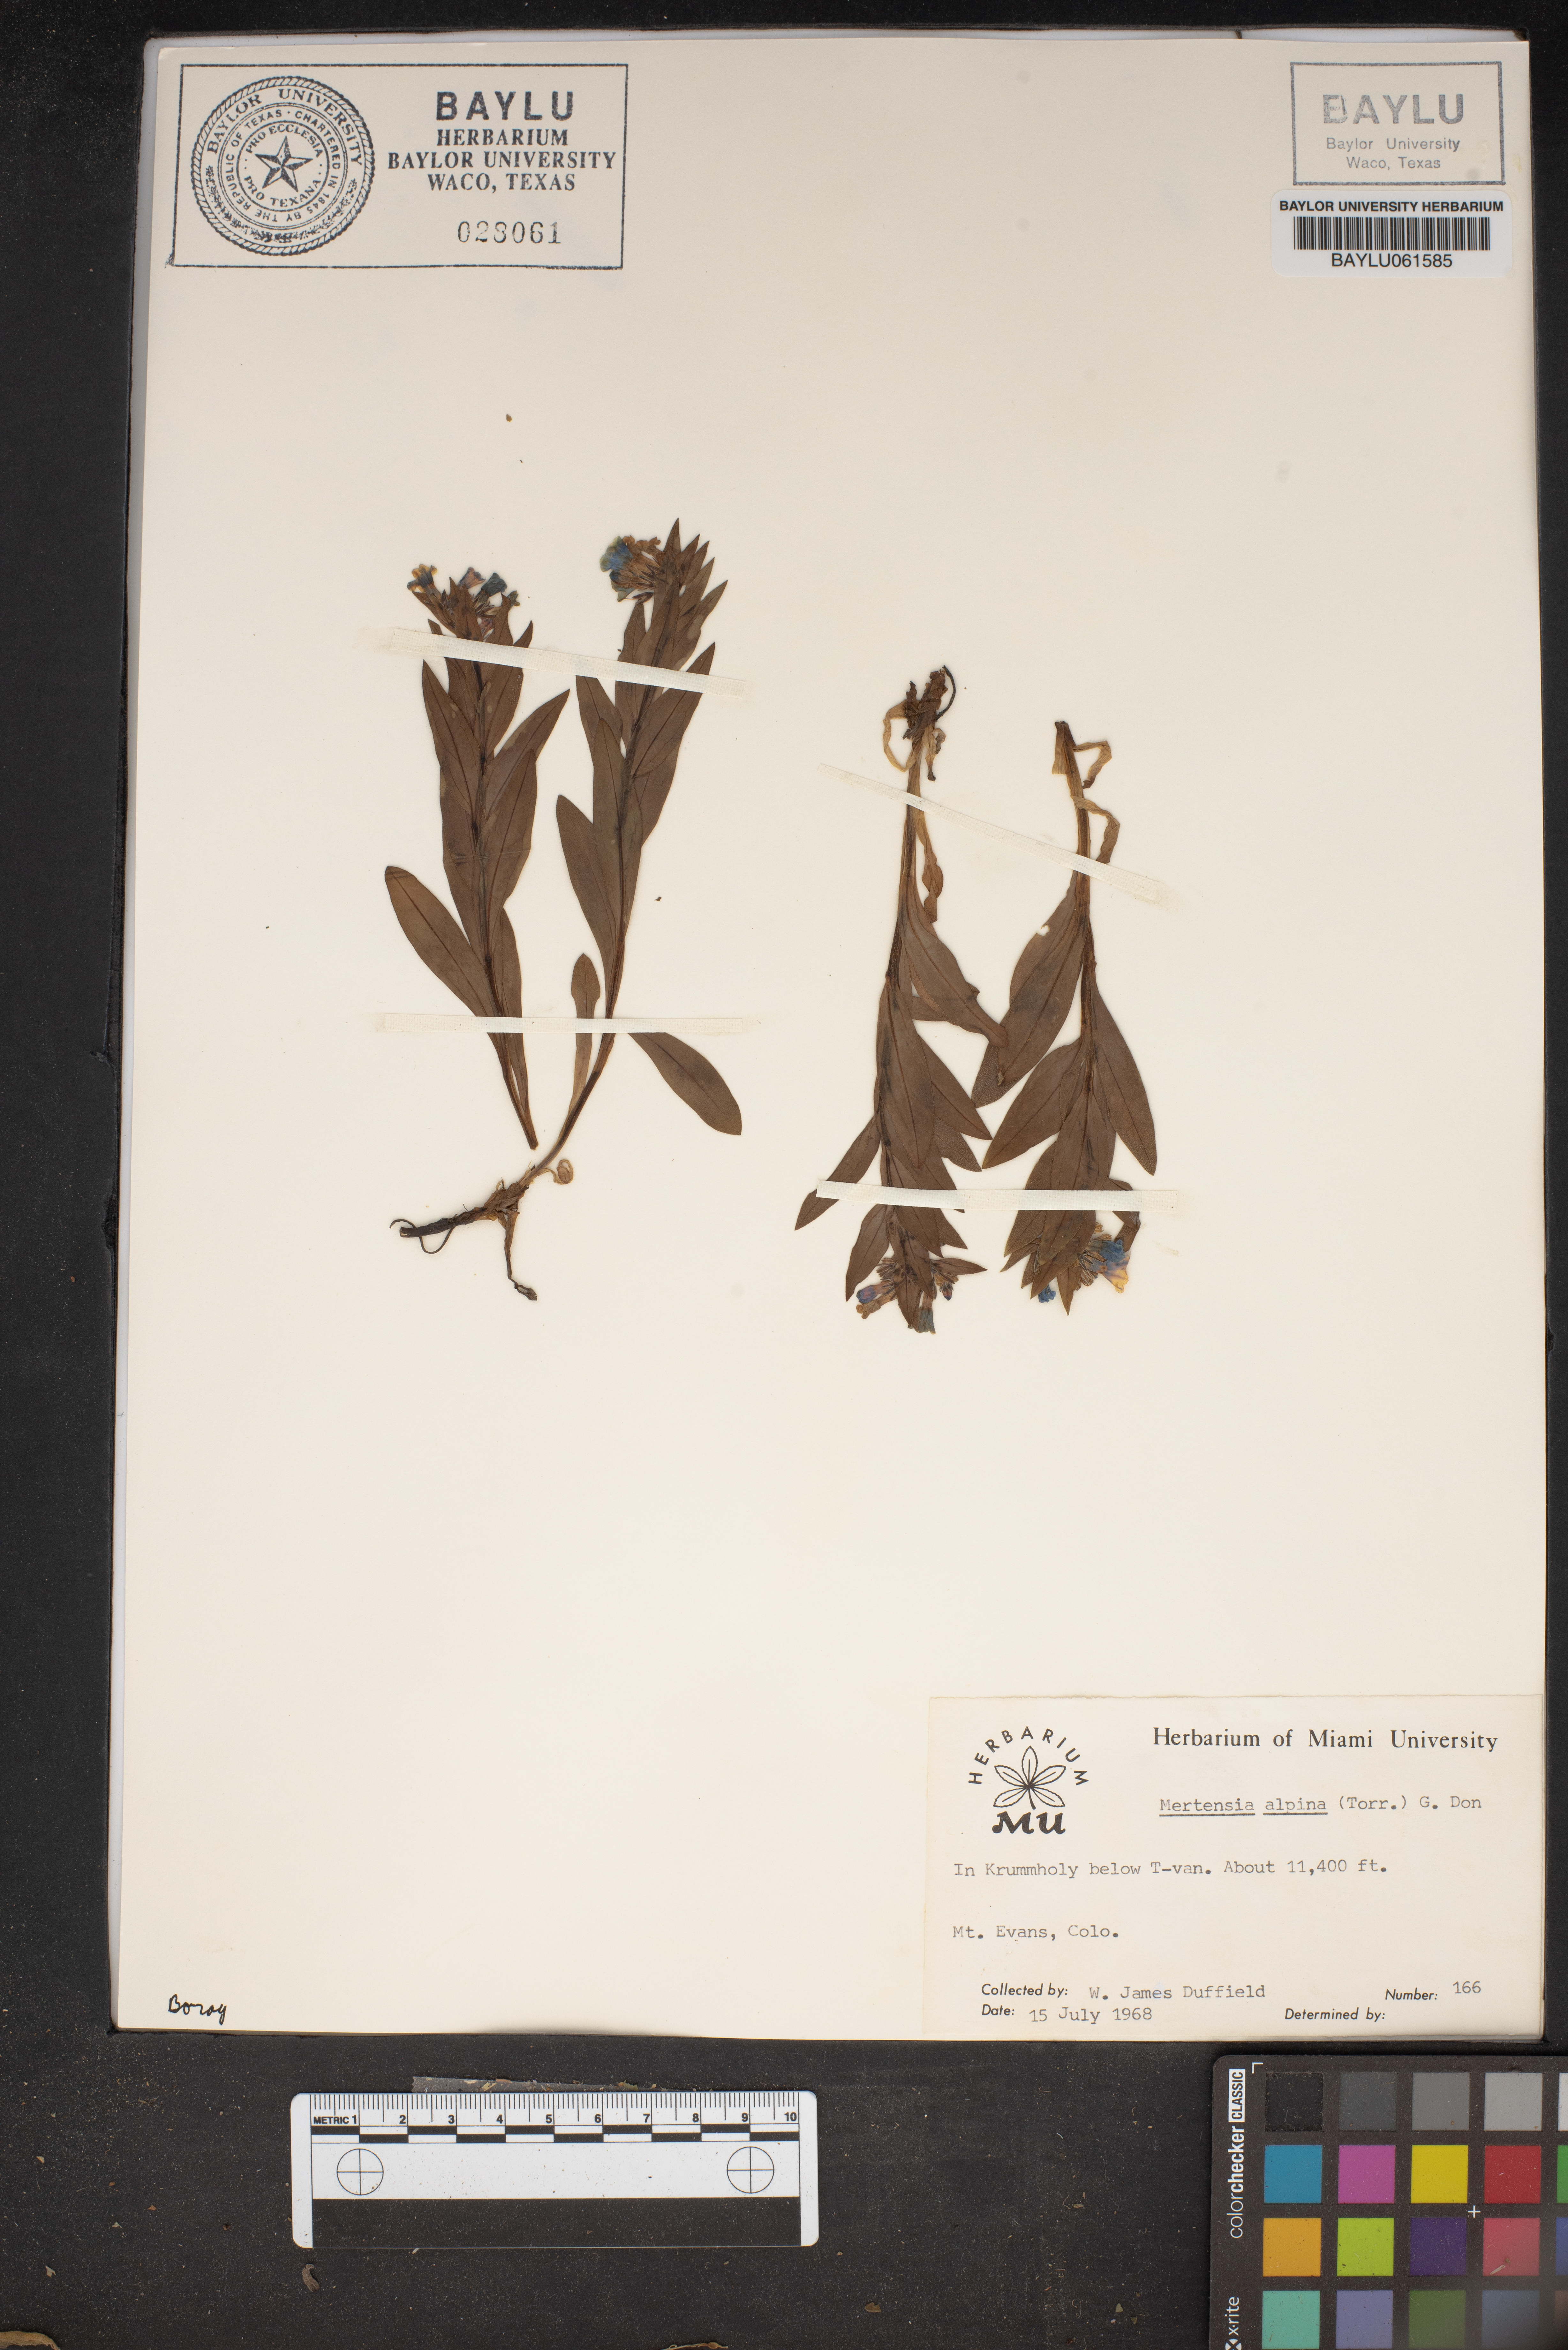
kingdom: Plantae
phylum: Tracheophyta
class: Magnoliopsida
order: Boraginales
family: Boraginaceae
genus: Mertensia
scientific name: Mertensia tweedyi
